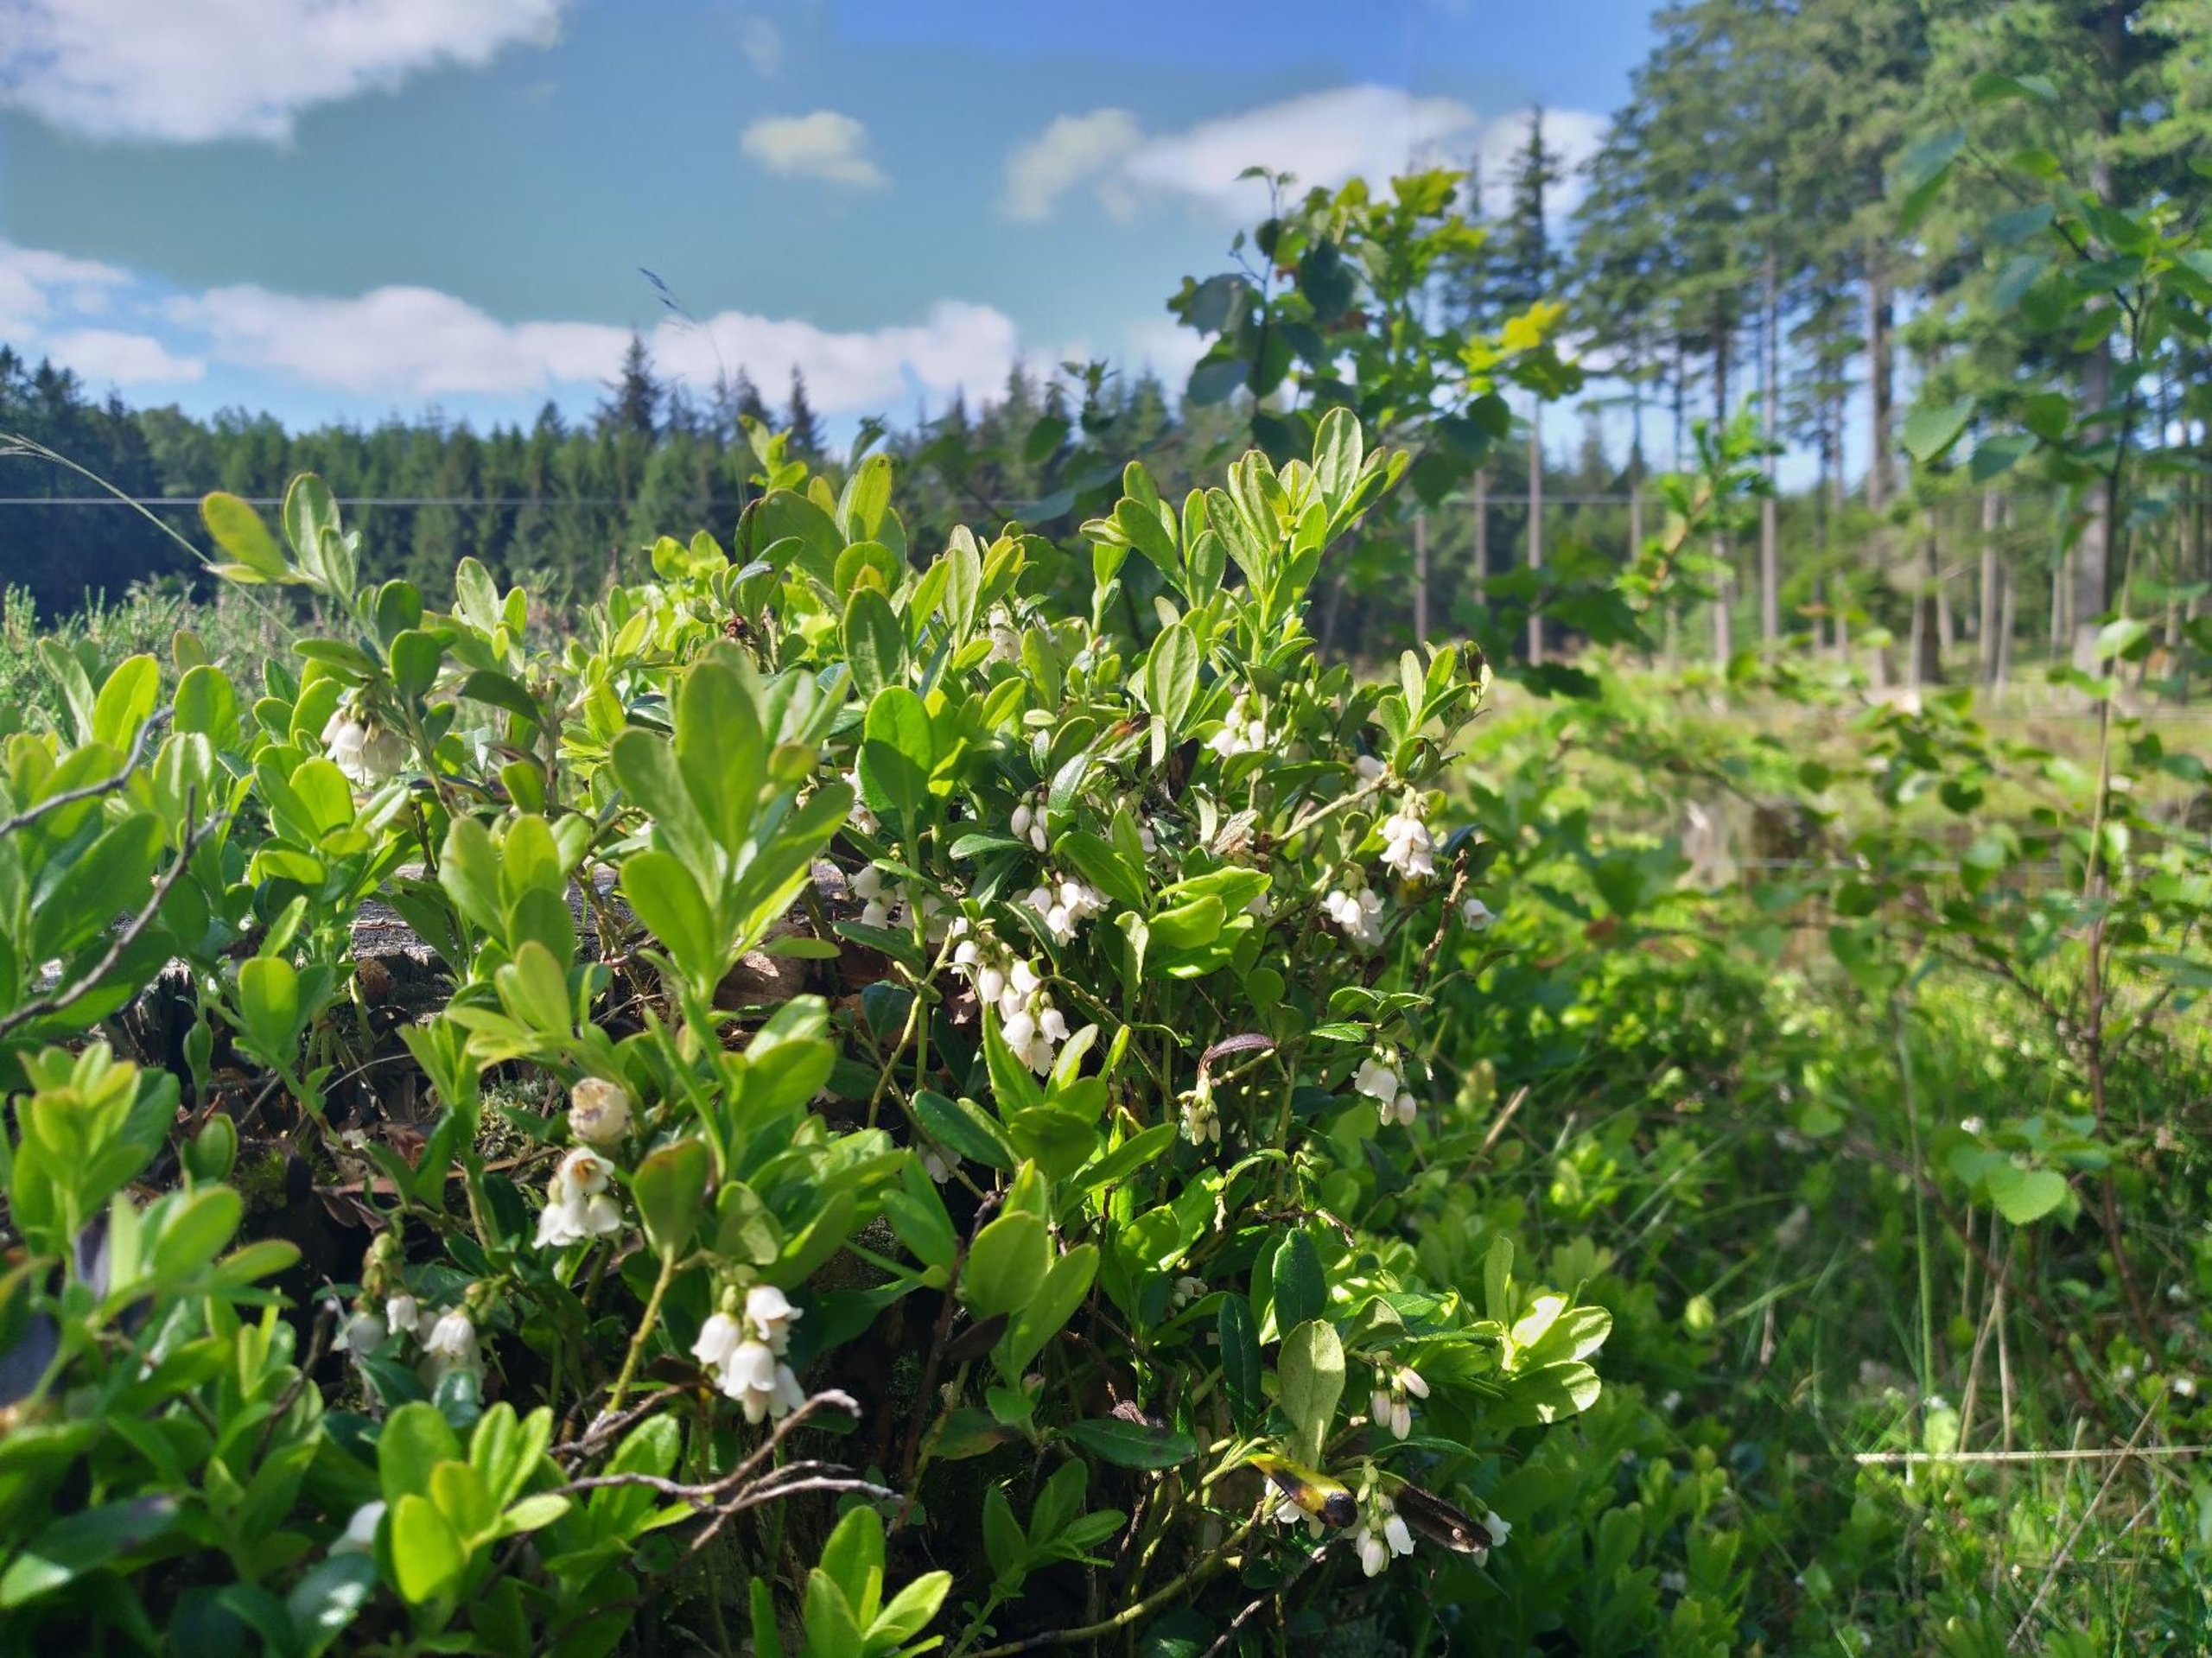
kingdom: Plantae
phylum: Tracheophyta
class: Magnoliopsida
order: Ericales
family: Ericaceae
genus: Vaccinium
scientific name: Vaccinium vitis-idaea
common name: Tyttebær
